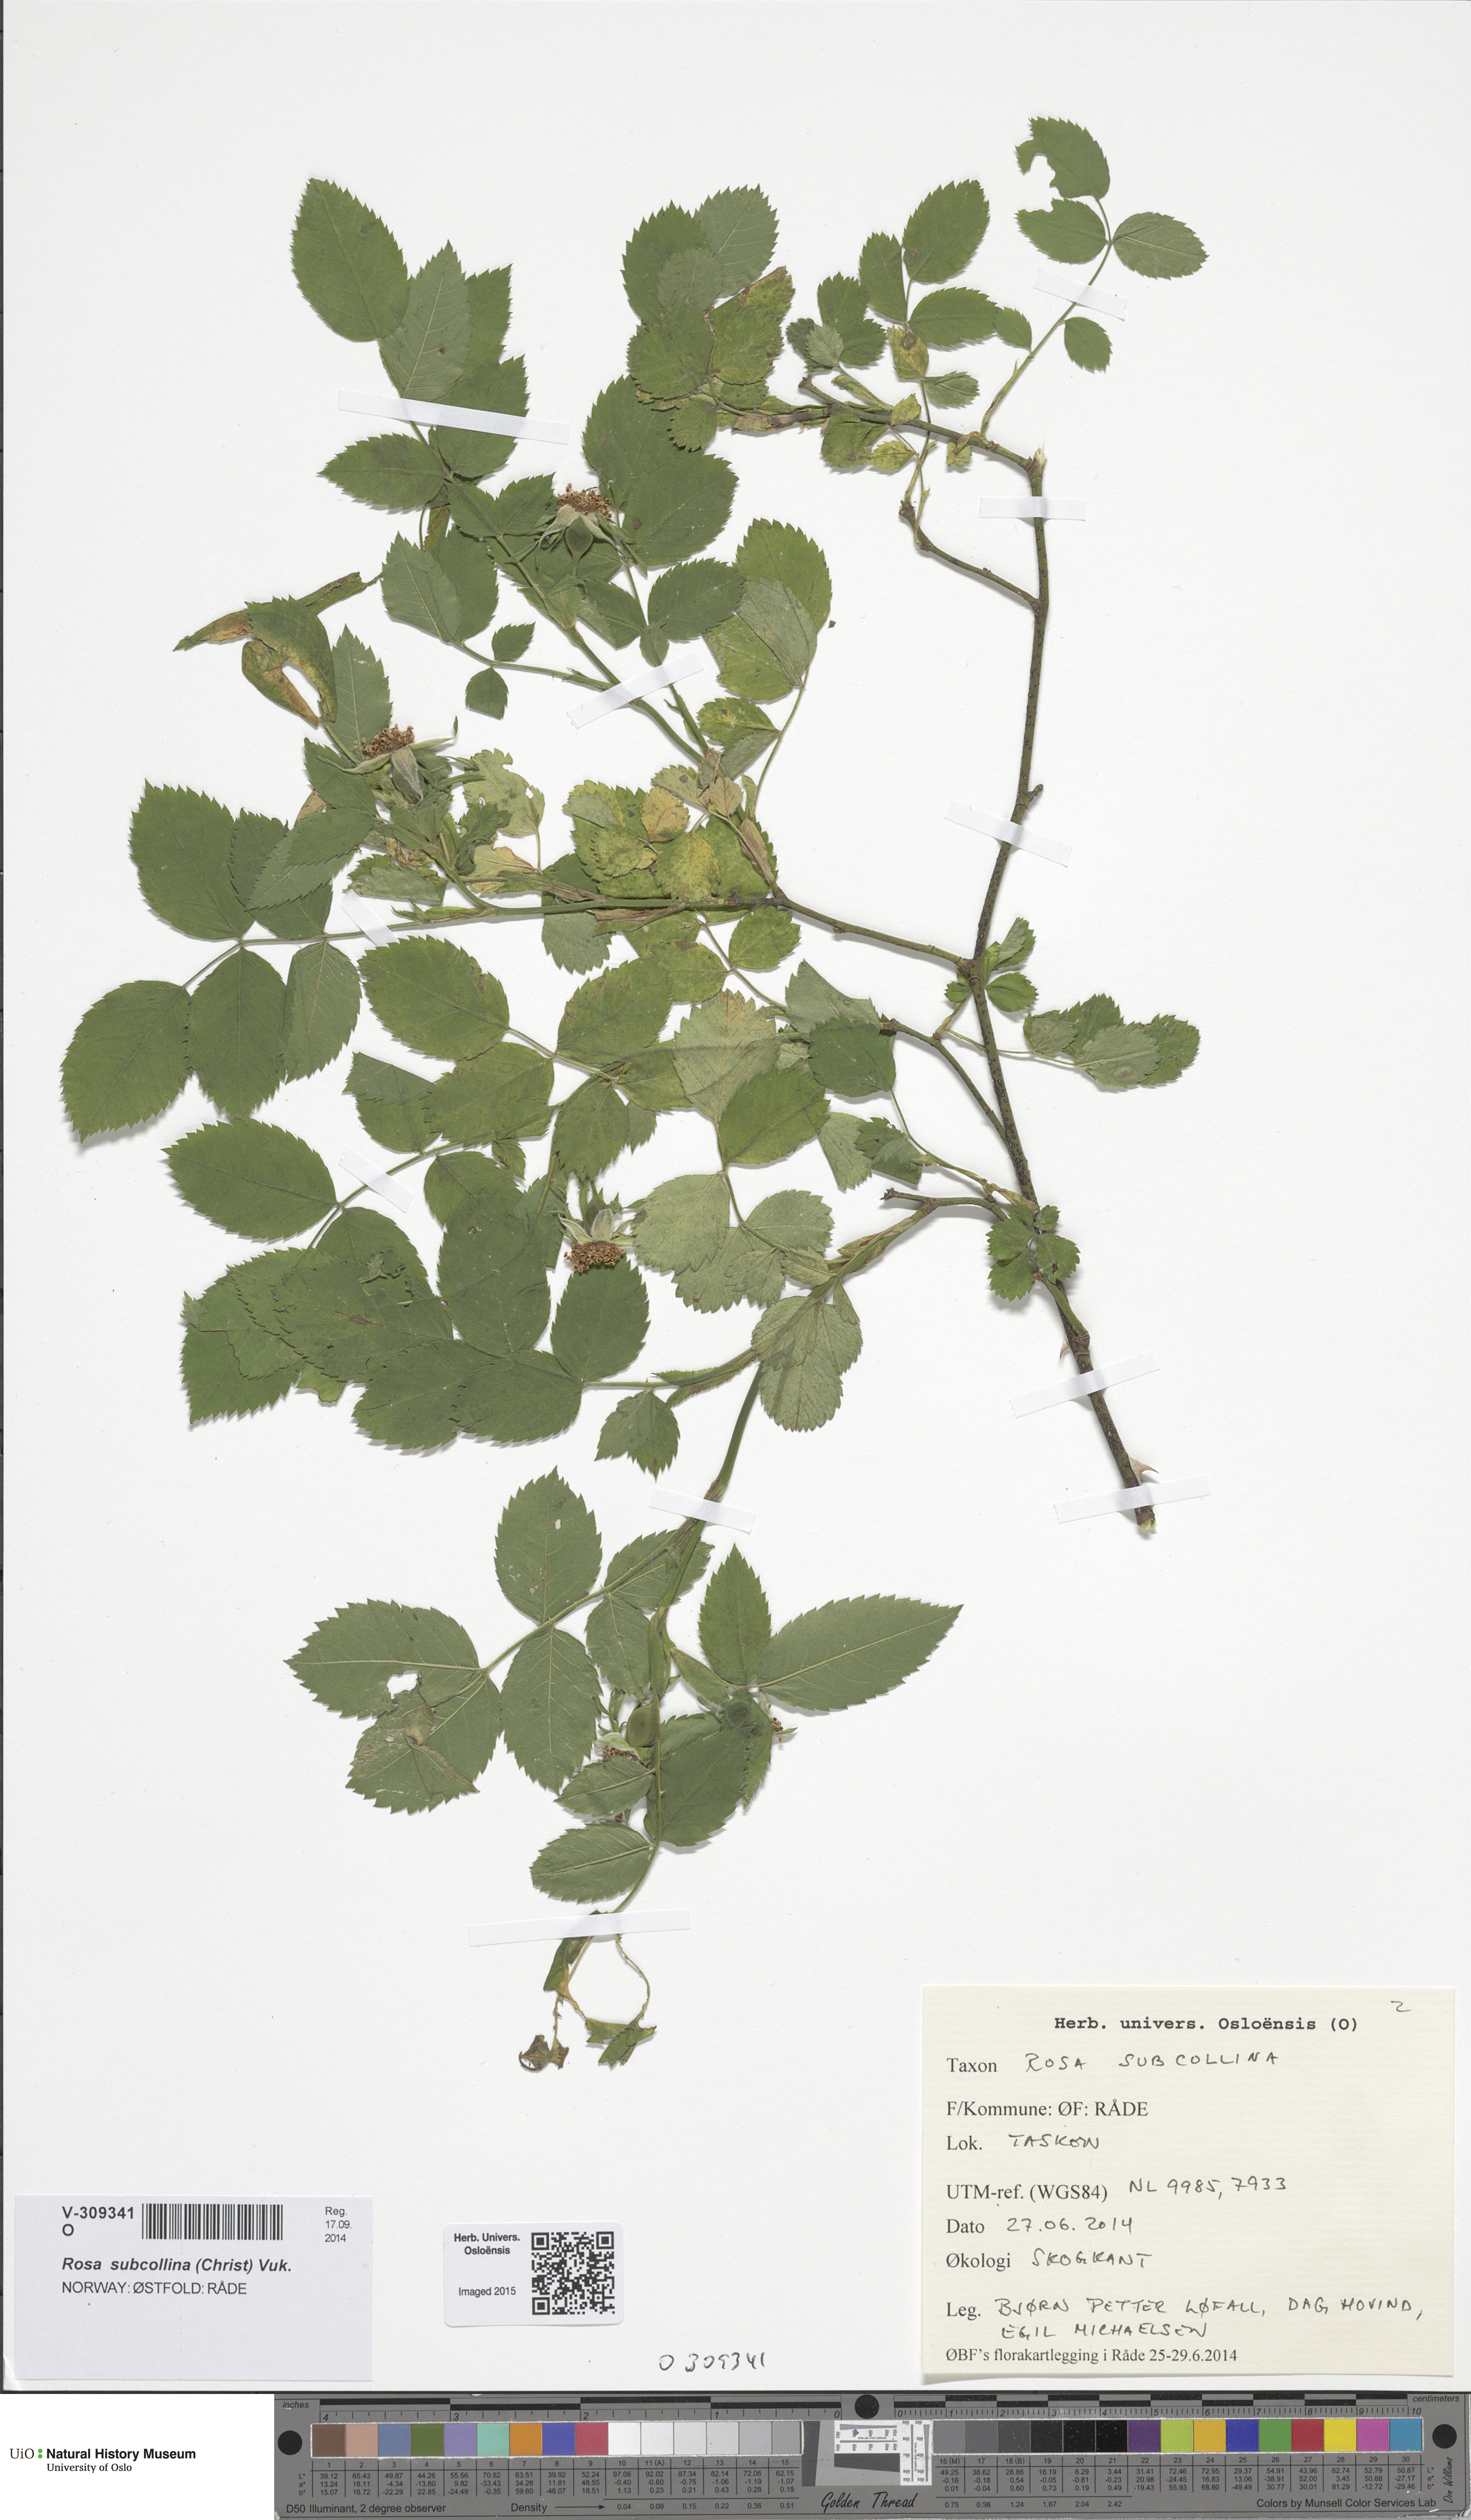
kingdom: Plantae
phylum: Tracheophyta
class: Magnoliopsida
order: Rosales
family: Rosaceae
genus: Rosa
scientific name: Rosa subcollina
